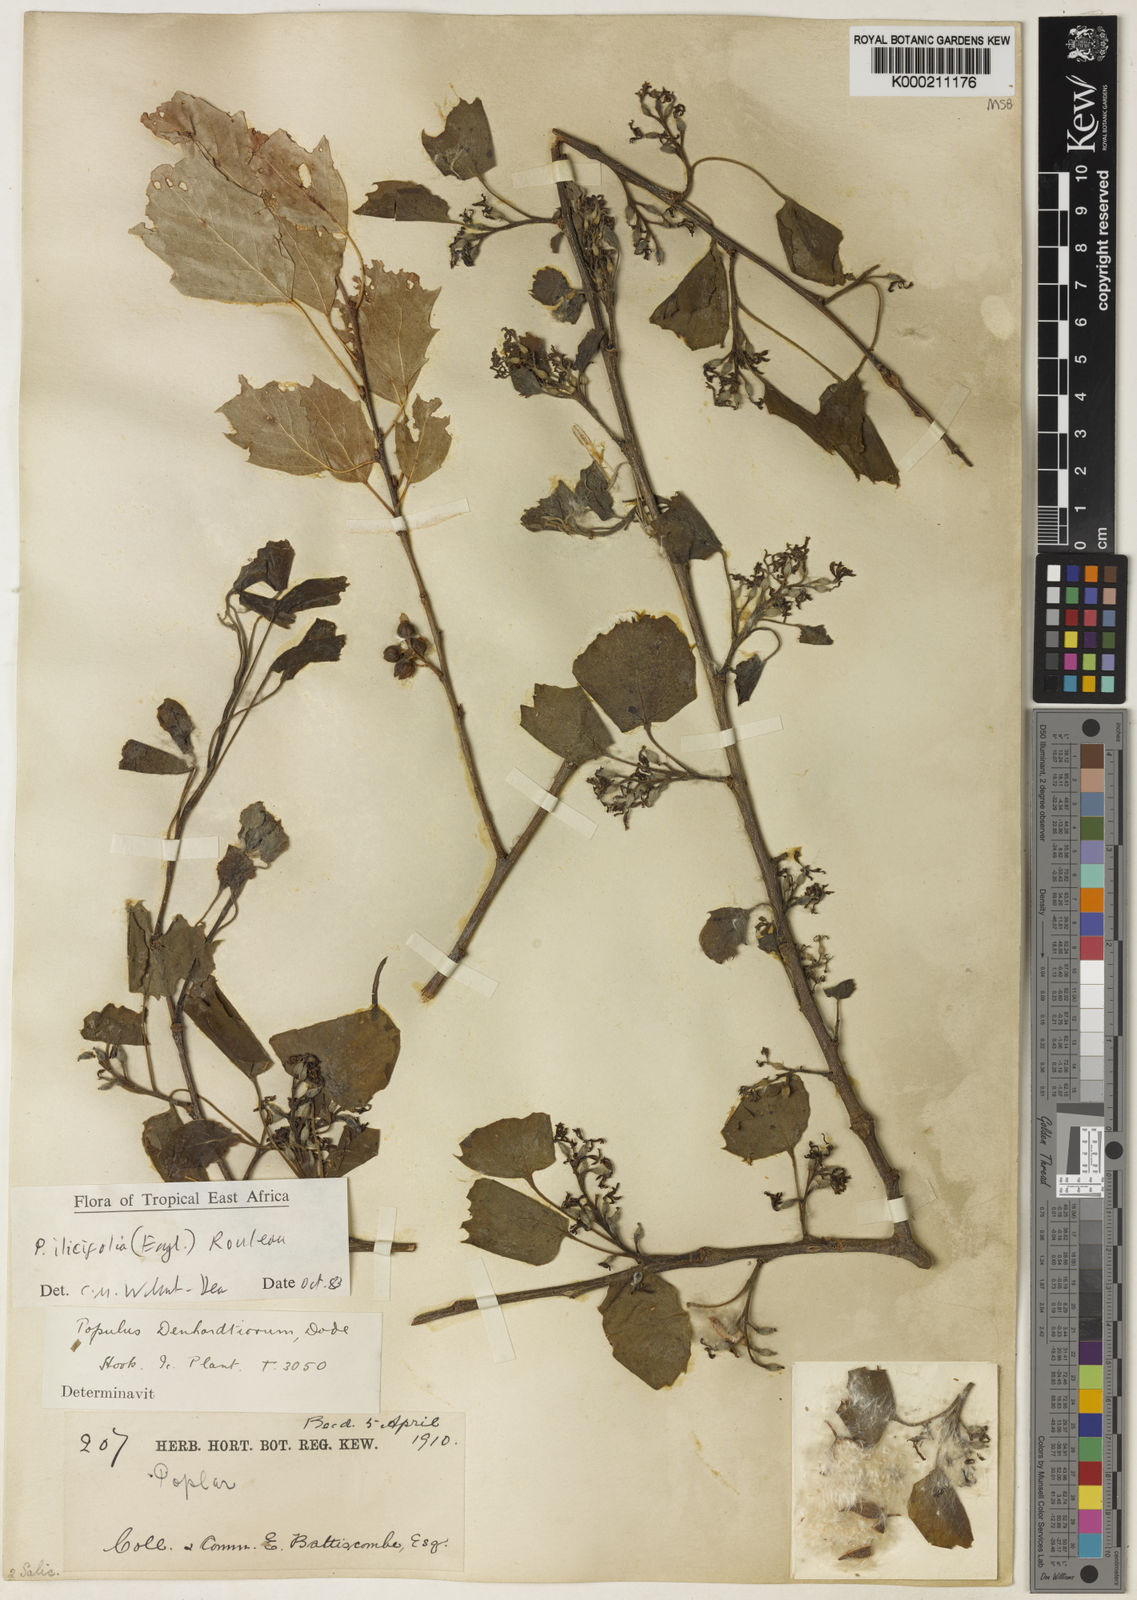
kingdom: Plantae
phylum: Tracheophyta
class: Magnoliopsida
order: Malpighiales
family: Salicaceae
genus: Populus
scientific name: Populus ilicifolia
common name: Tana river poplar
